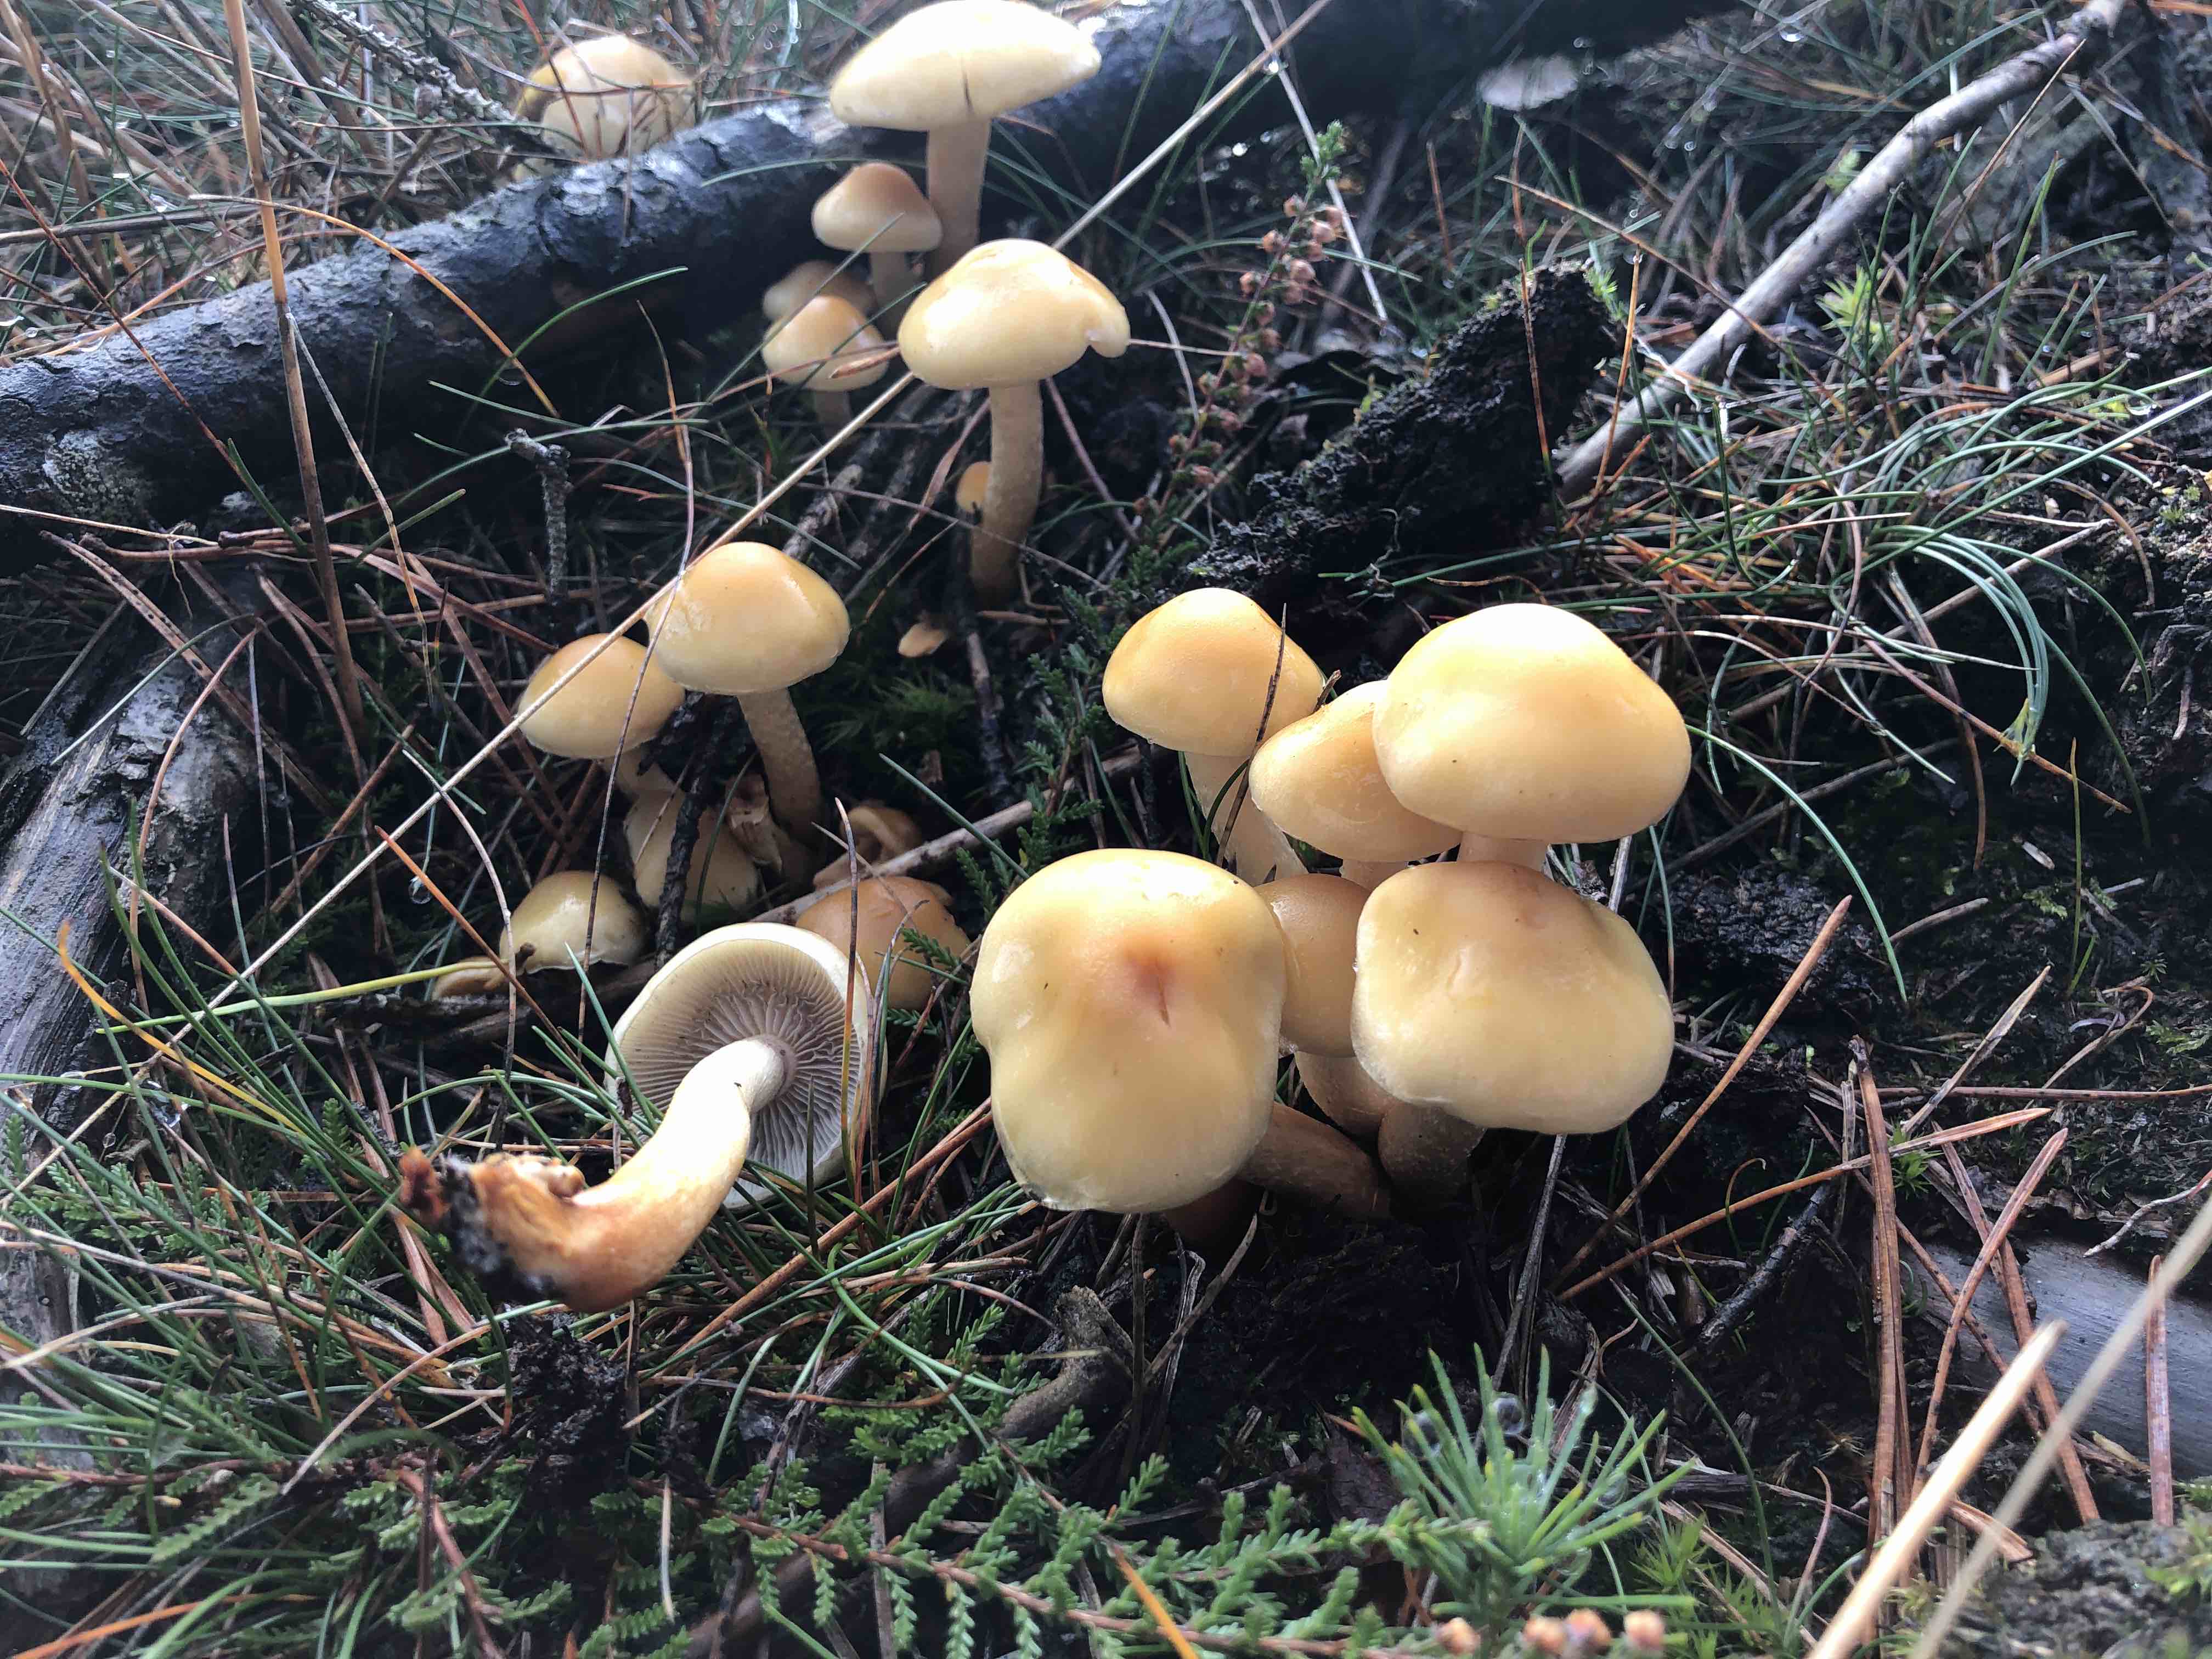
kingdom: Fungi
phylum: Basidiomycota
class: Agaricomycetes
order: Agaricales
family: Strophariaceae
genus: Hypholoma
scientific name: Hypholoma capnoides
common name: gran-svovlhat
